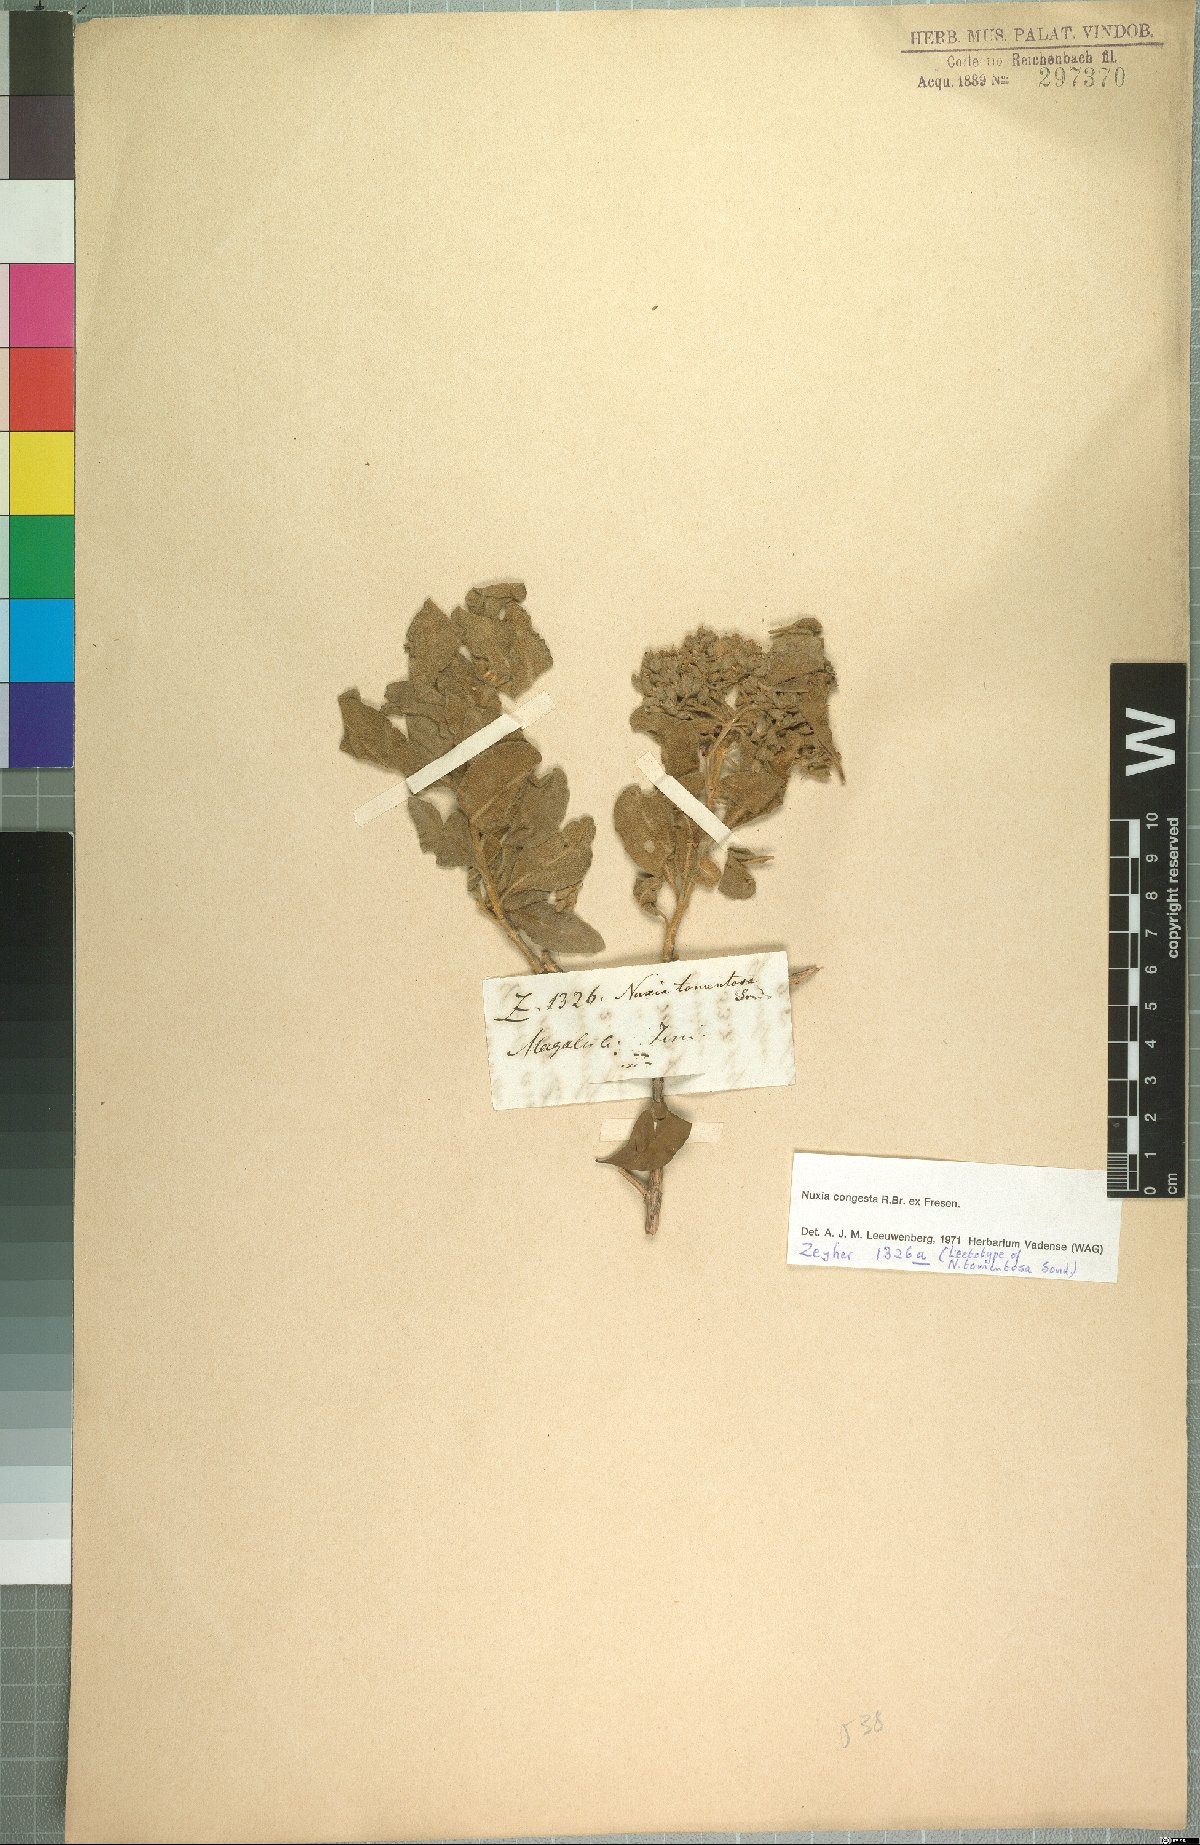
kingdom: Plantae
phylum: Tracheophyta
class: Magnoliopsida
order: Lamiales
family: Stilbaceae
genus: Nuxia
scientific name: Nuxia congesta
